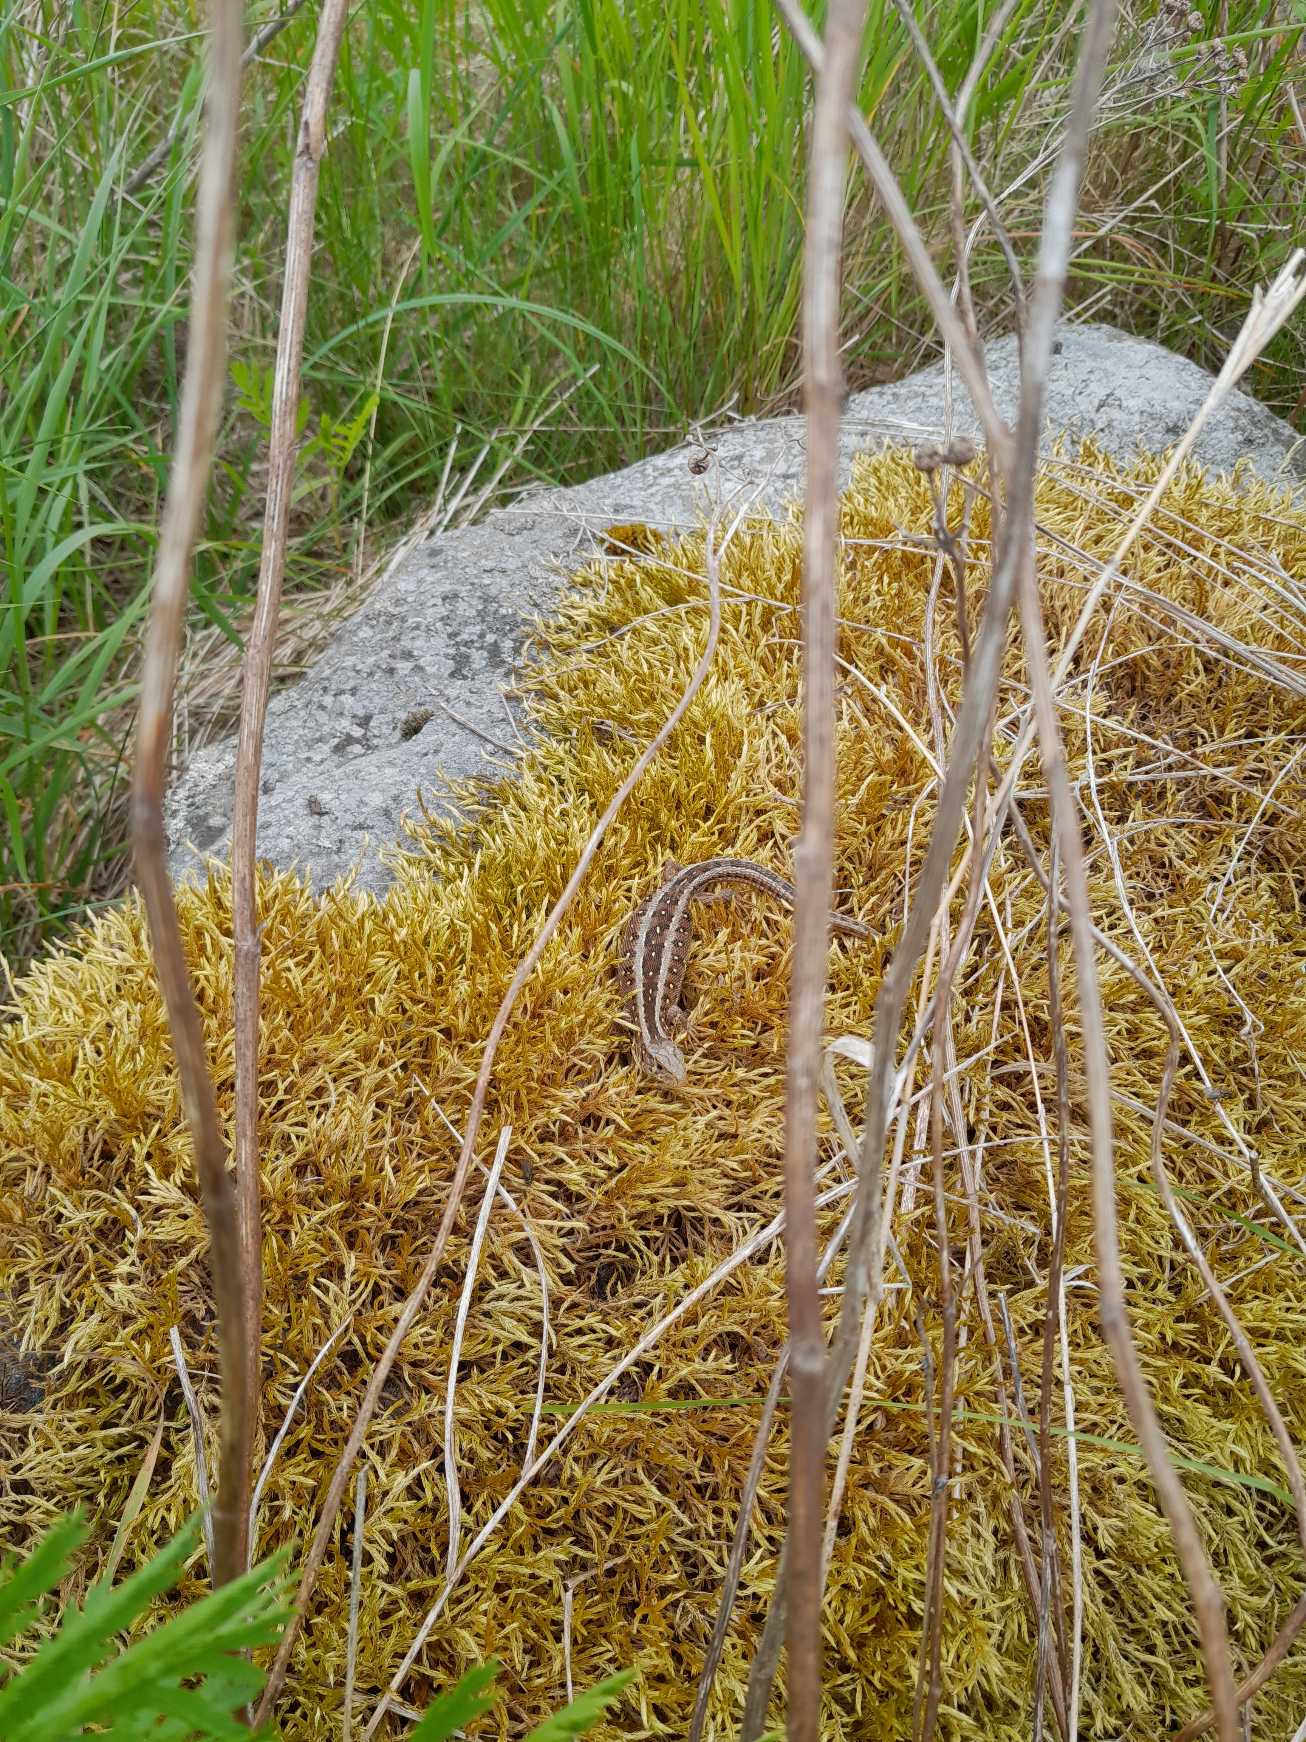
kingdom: Animalia
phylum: Chordata
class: Squamata
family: Lacertidae
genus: Lacerta
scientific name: Lacerta agilis
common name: Markfirben
